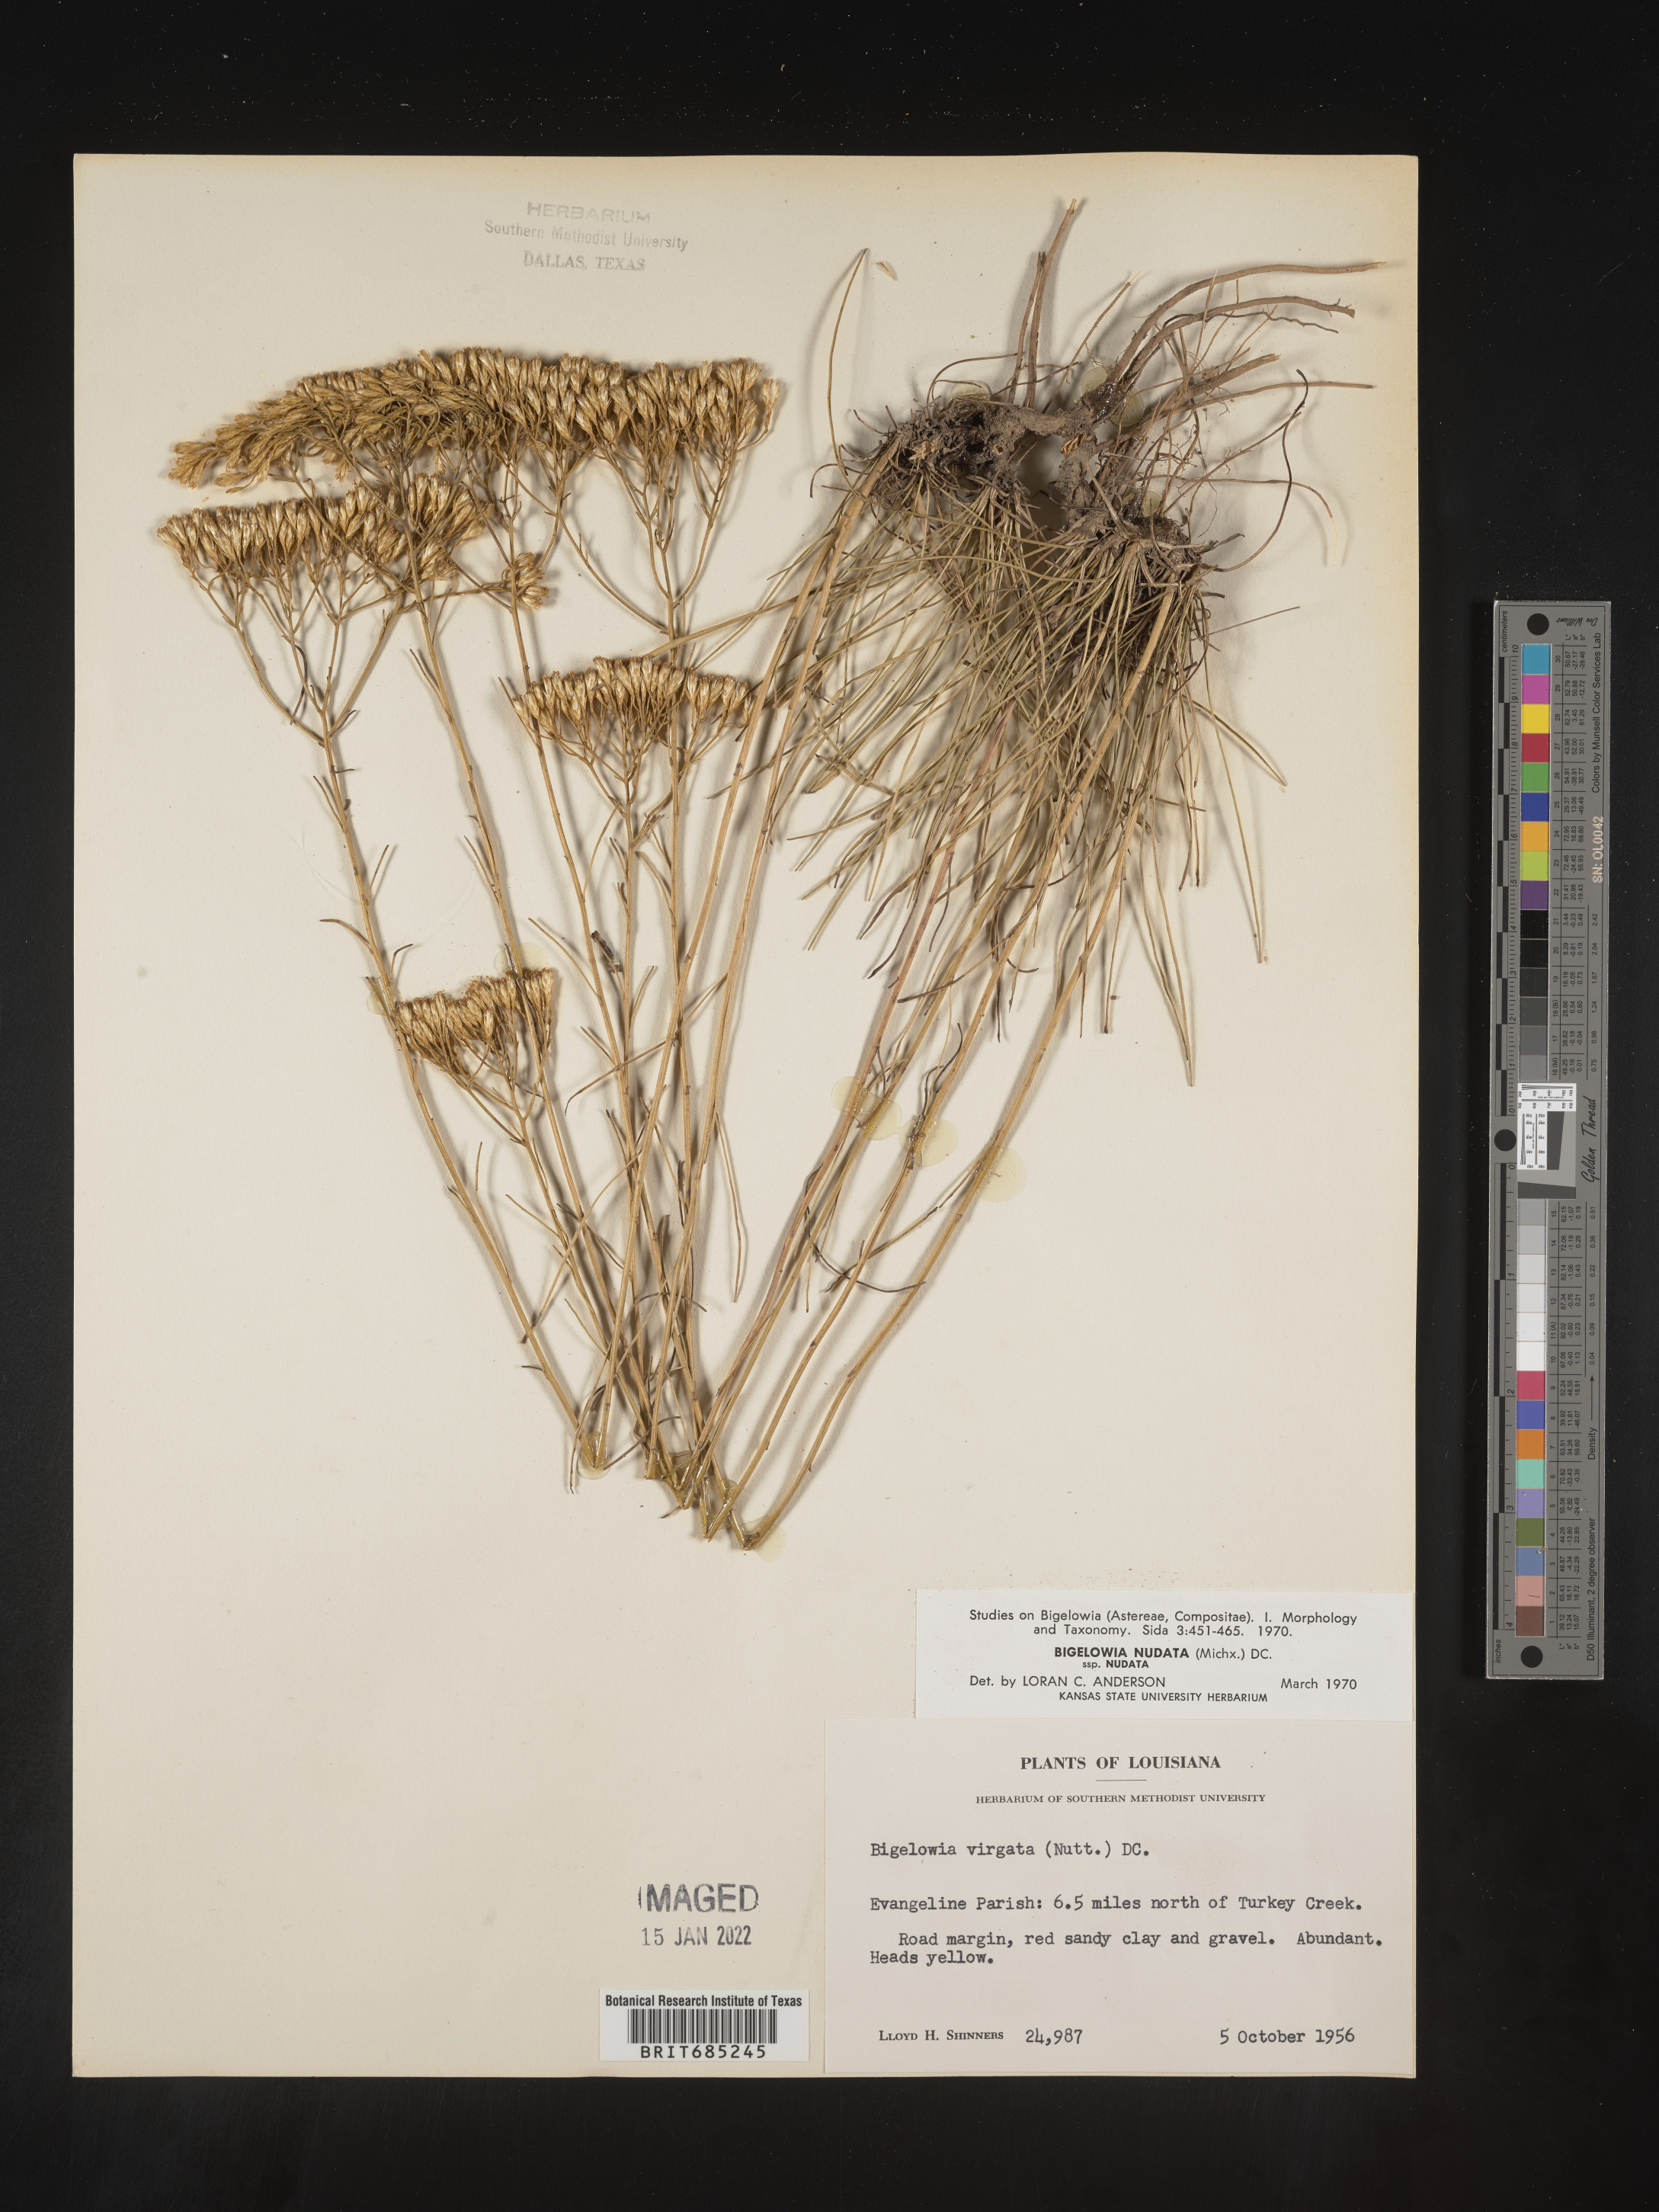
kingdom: Plantae
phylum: Tracheophyta
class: Magnoliopsida
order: Asterales
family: Asteraceae
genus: Bigelowia
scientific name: Bigelowia nuttallii
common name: Nuttall's rayless-goldenrod
